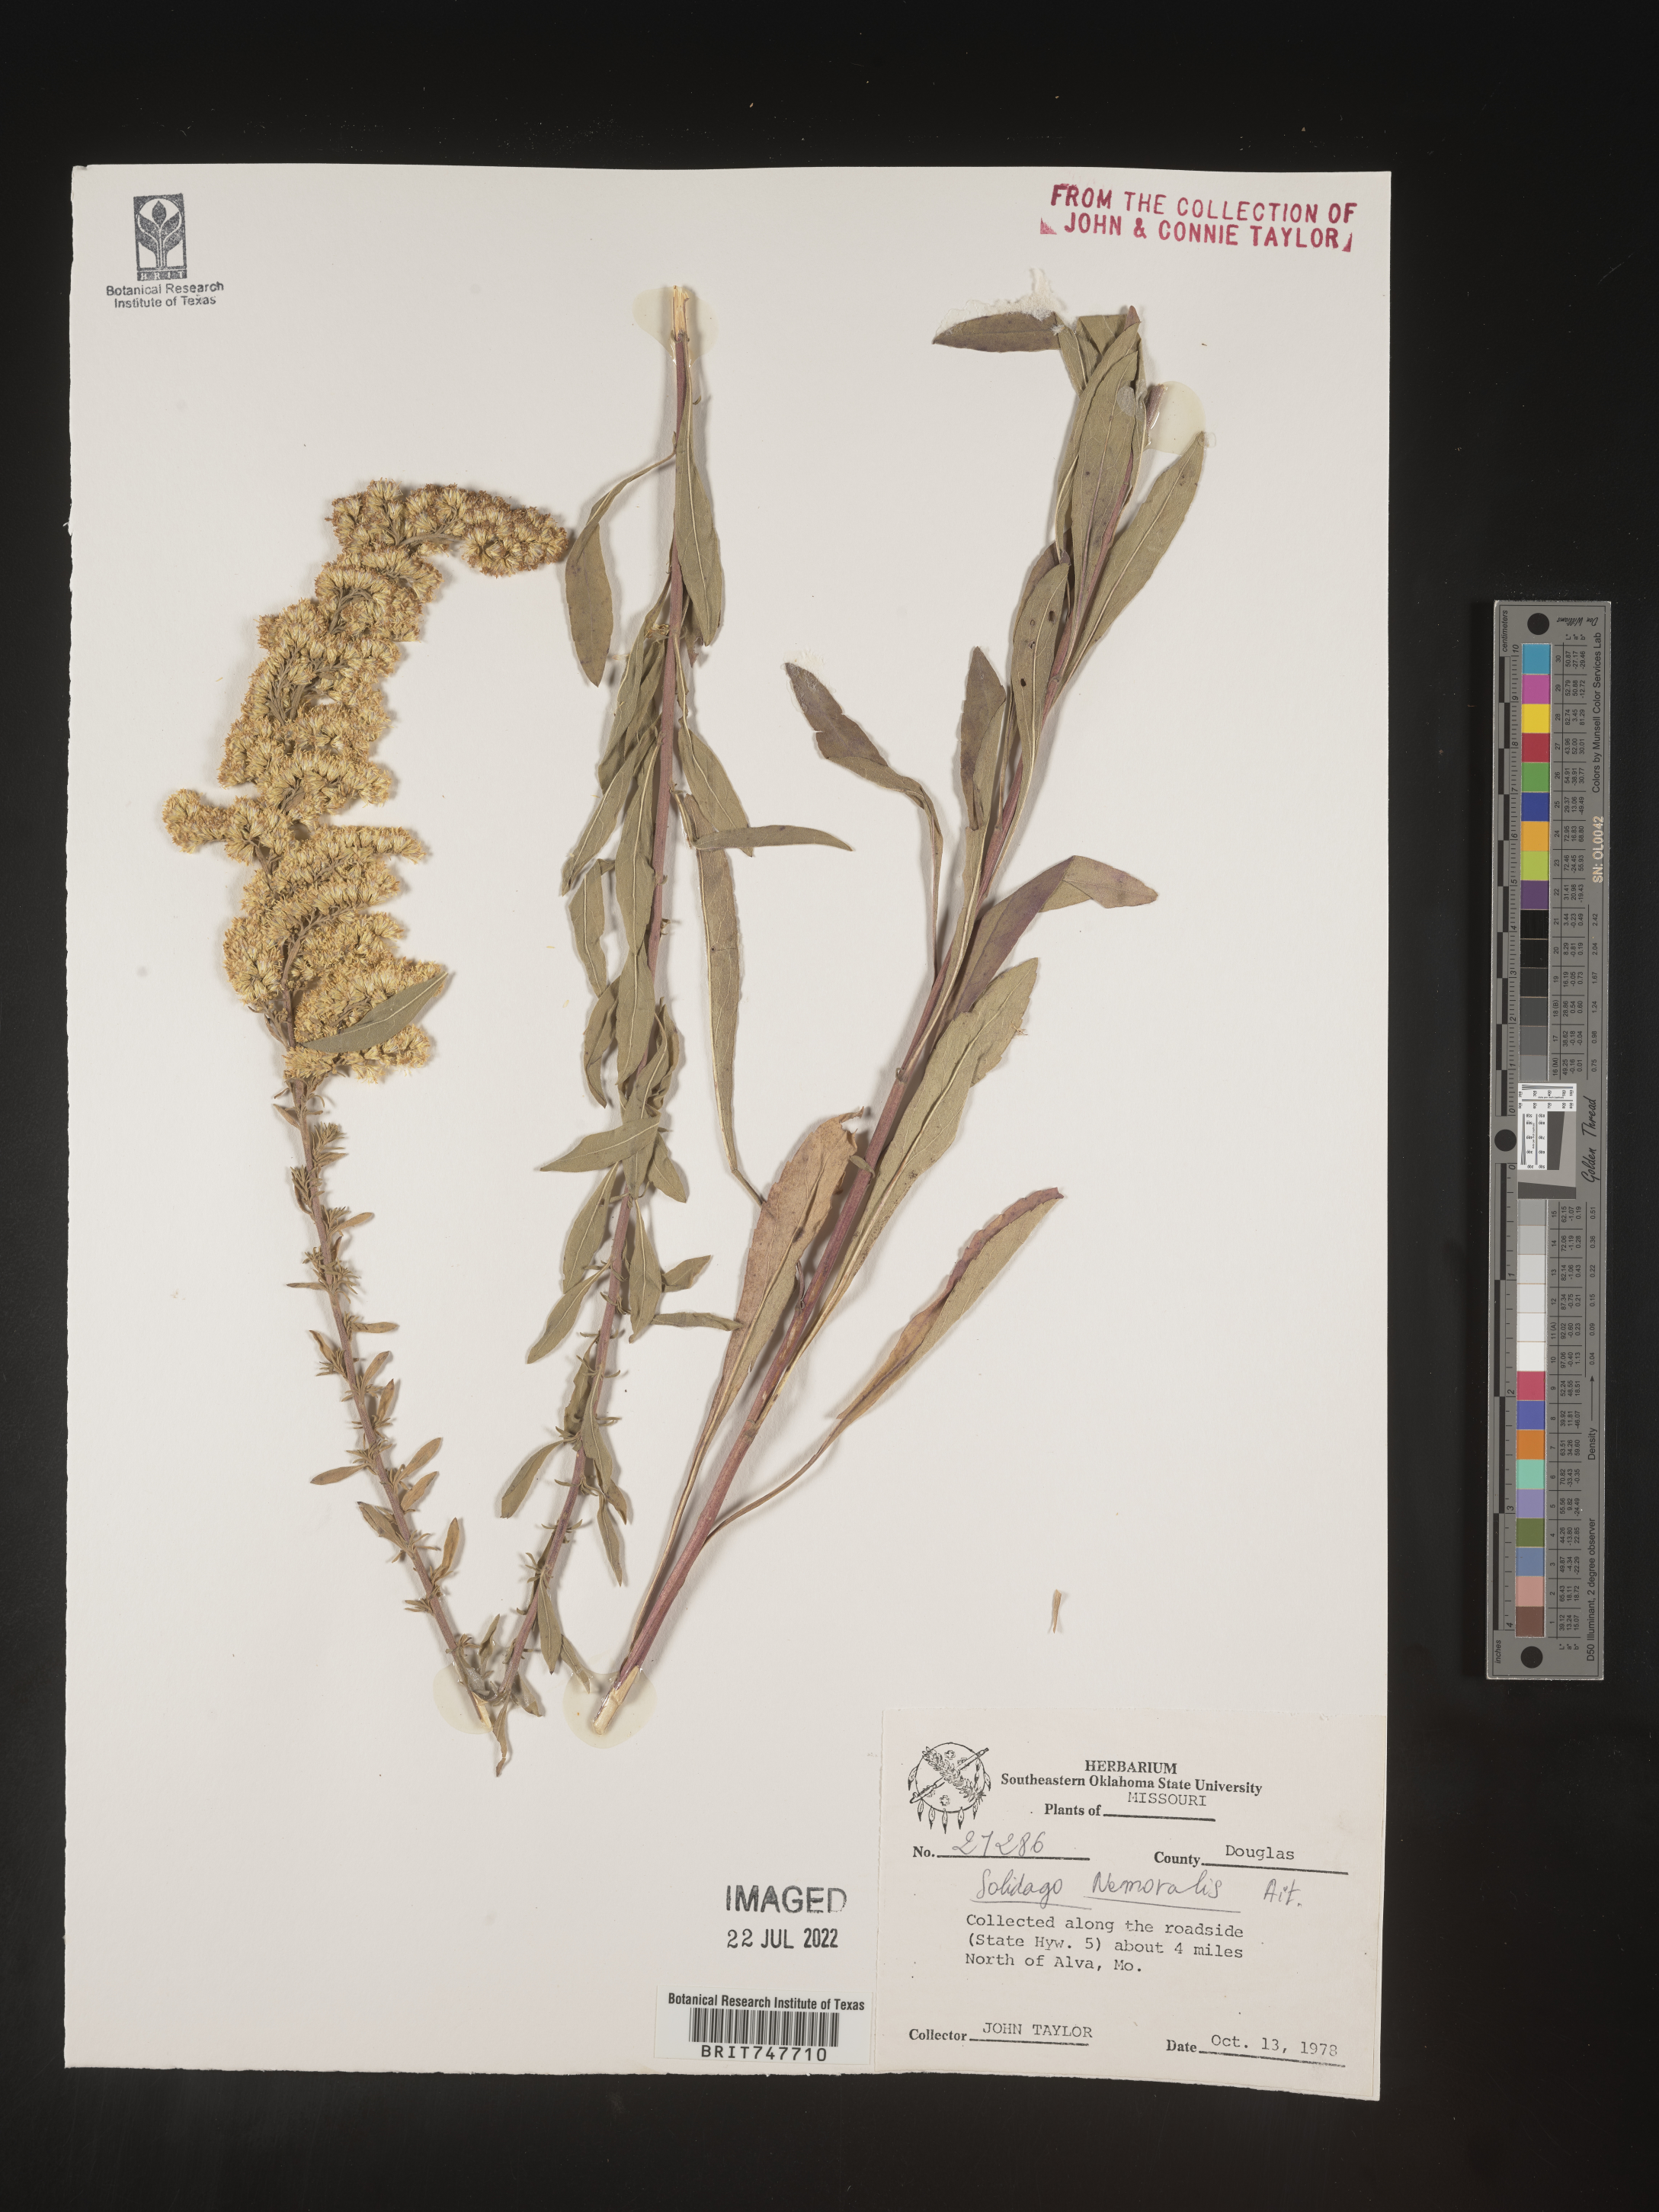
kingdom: Plantae
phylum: Tracheophyta
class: Magnoliopsida
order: Asterales
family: Asteraceae
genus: Solidago
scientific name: Solidago nemoralis
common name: Grey goldenrod
